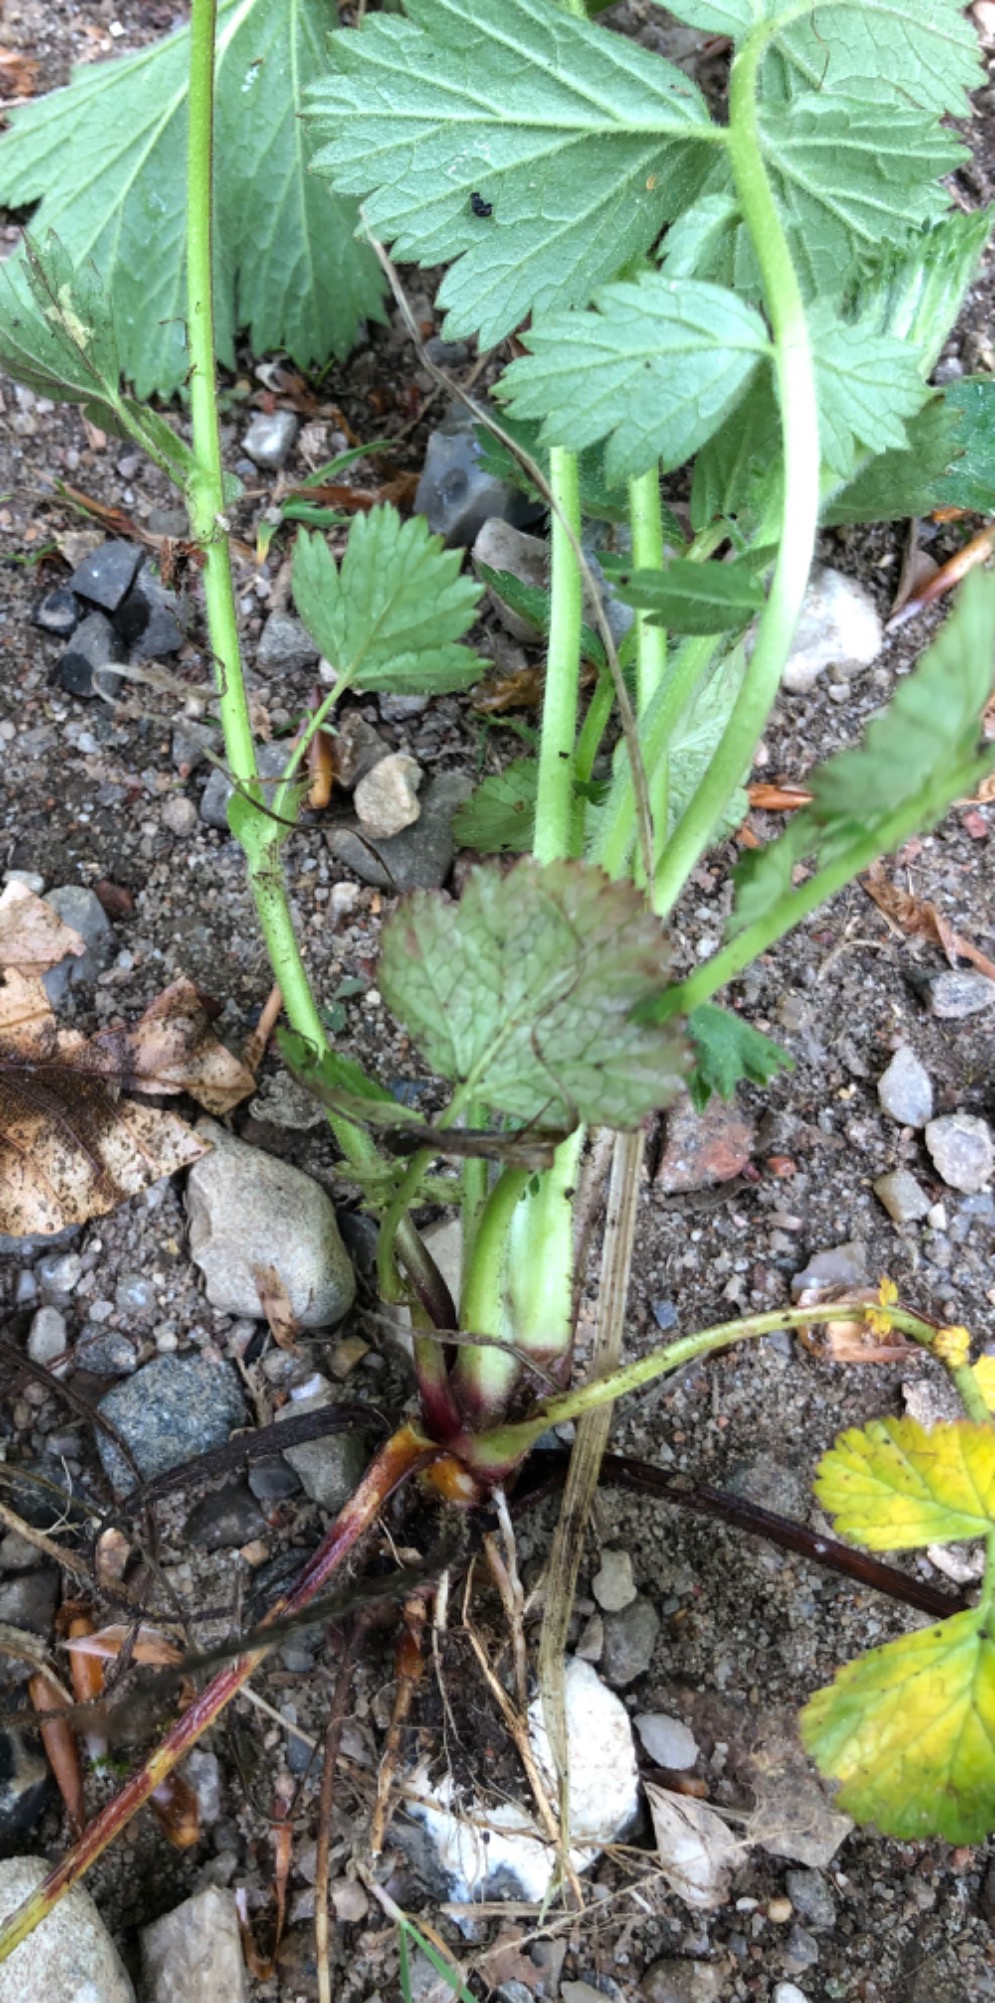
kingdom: Plantae
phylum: Tracheophyta
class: Magnoliopsida
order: Rosales
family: Rosaceae
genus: Geum
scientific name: Geum rivale
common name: Eng-nellikerod
